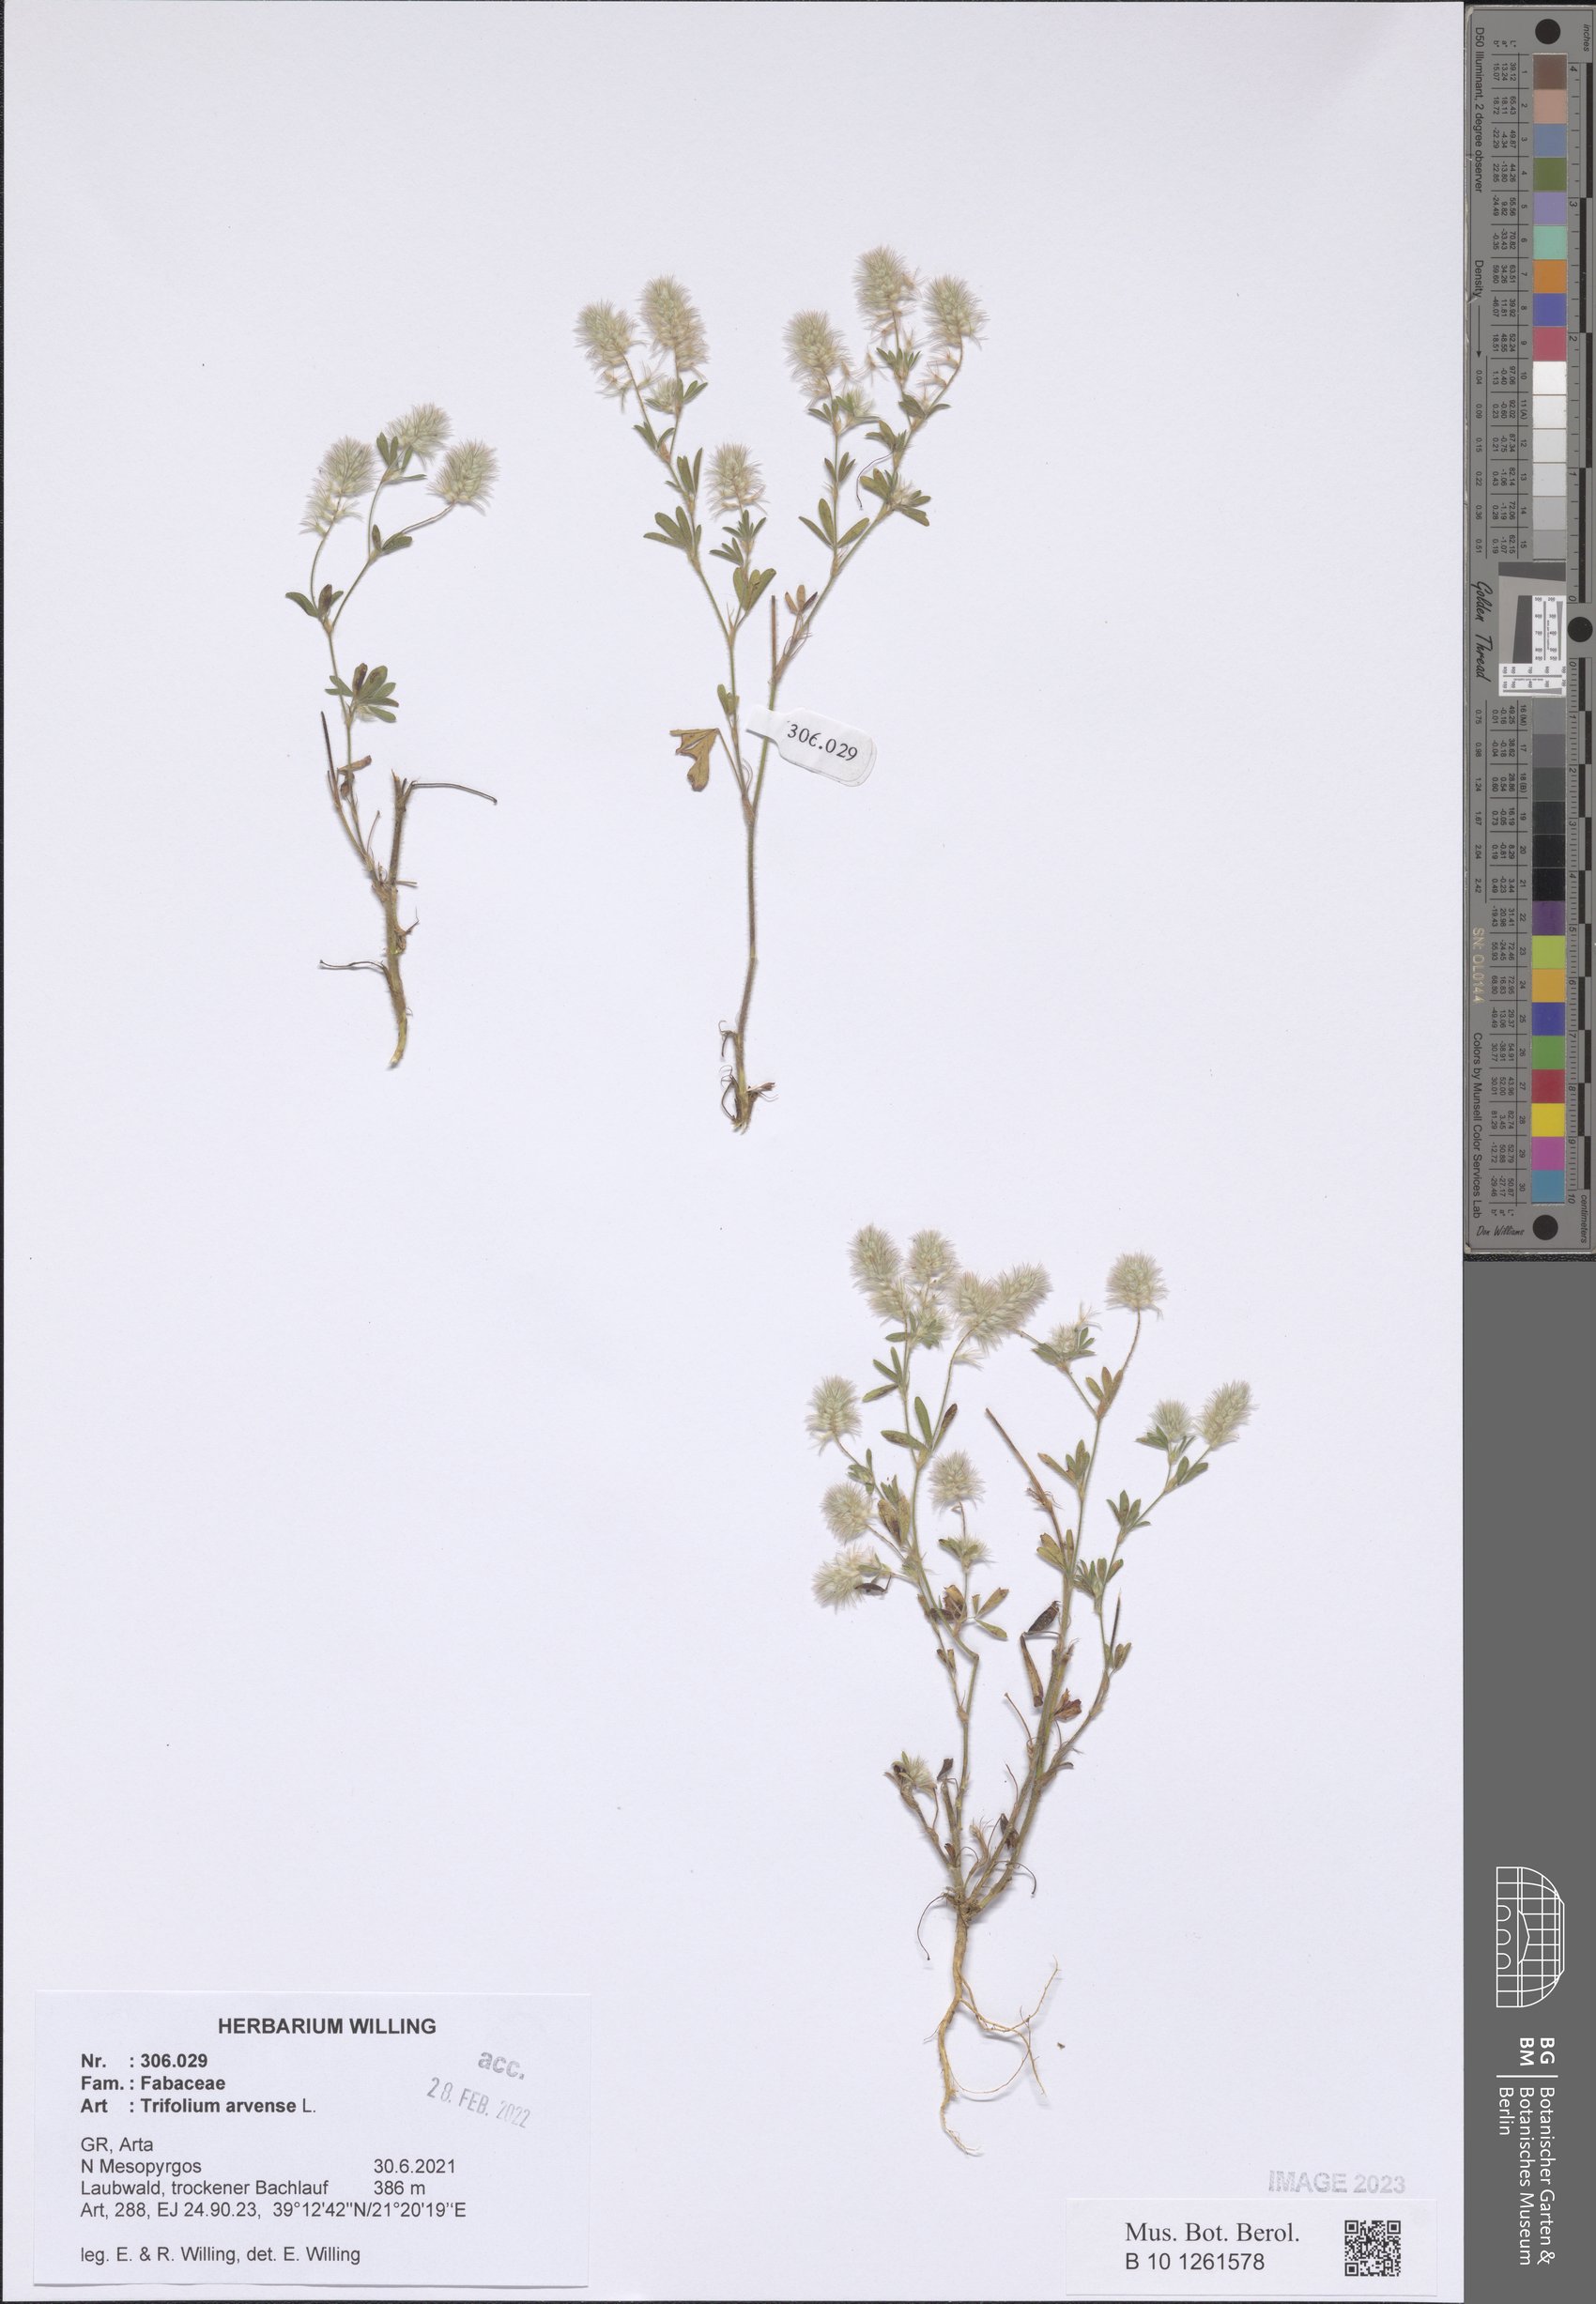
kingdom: Plantae
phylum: Tracheophyta
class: Magnoliopsida
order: Fabales
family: Fabaceae
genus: Trifolium
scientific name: Trifolium arvense
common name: Hare's-foot clover
